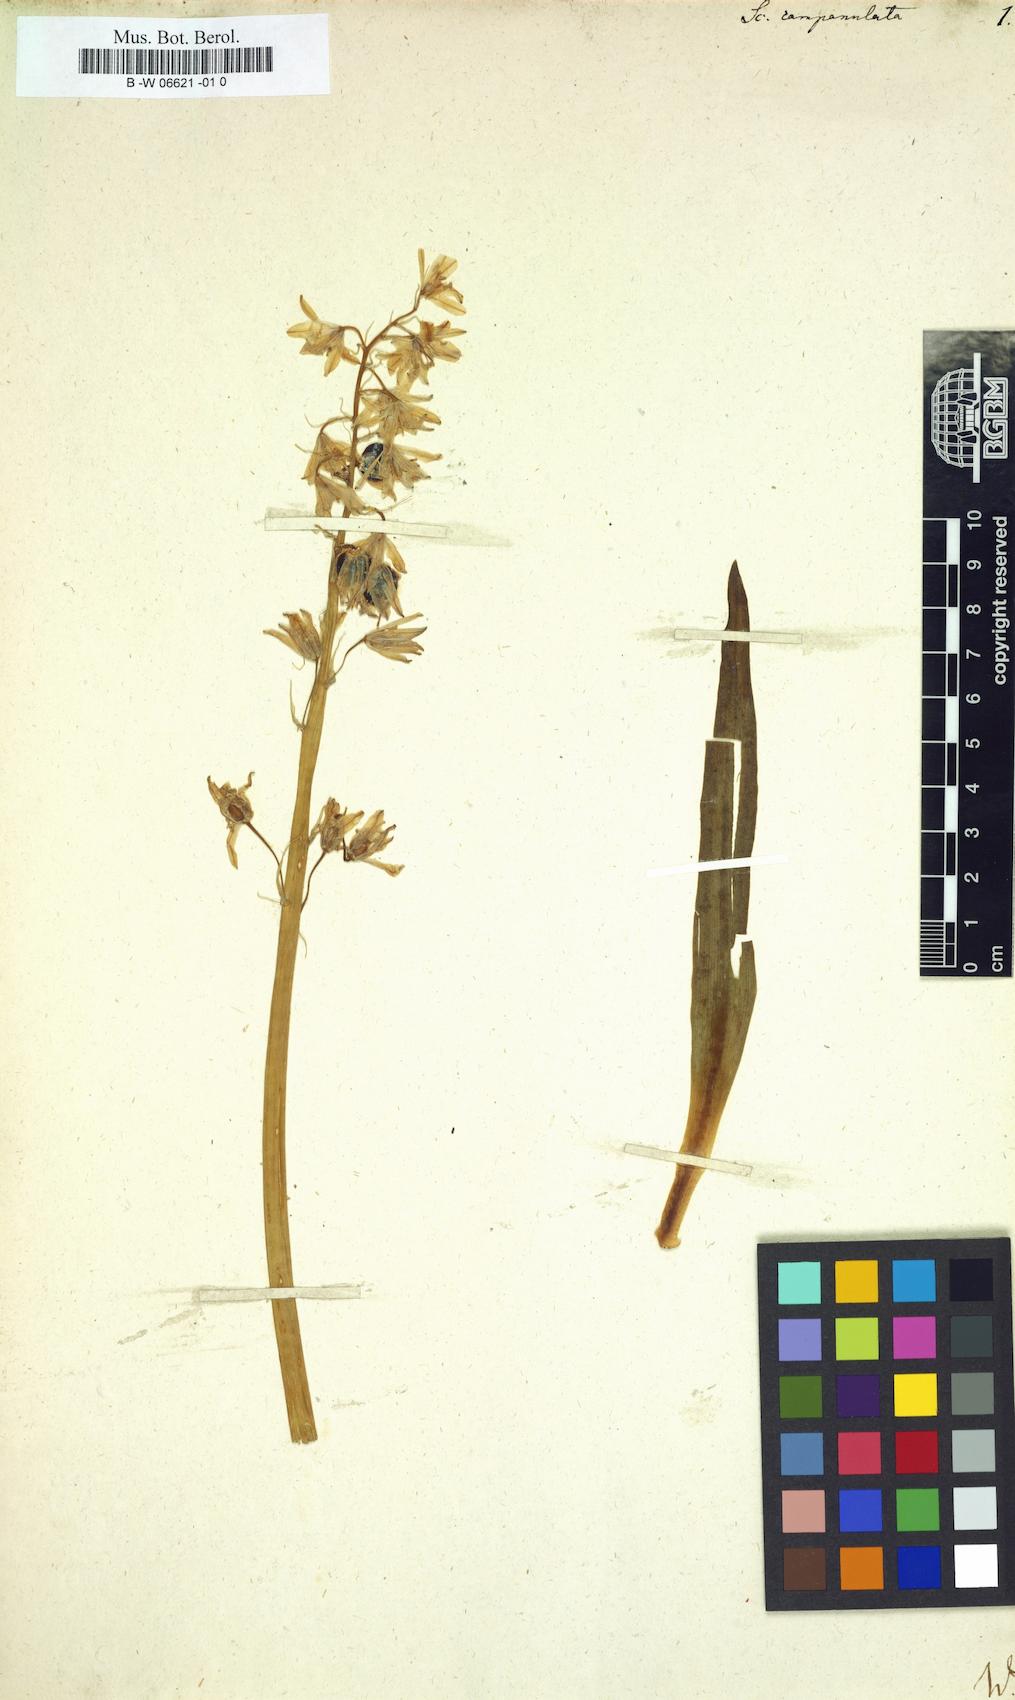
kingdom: Plantae
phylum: Tracheophyta
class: Liliopsida
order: Asparagales
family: Asparagaceae
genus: Hyacinthoides
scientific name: Hyacinthoides hispanica
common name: Spanish bluebell
